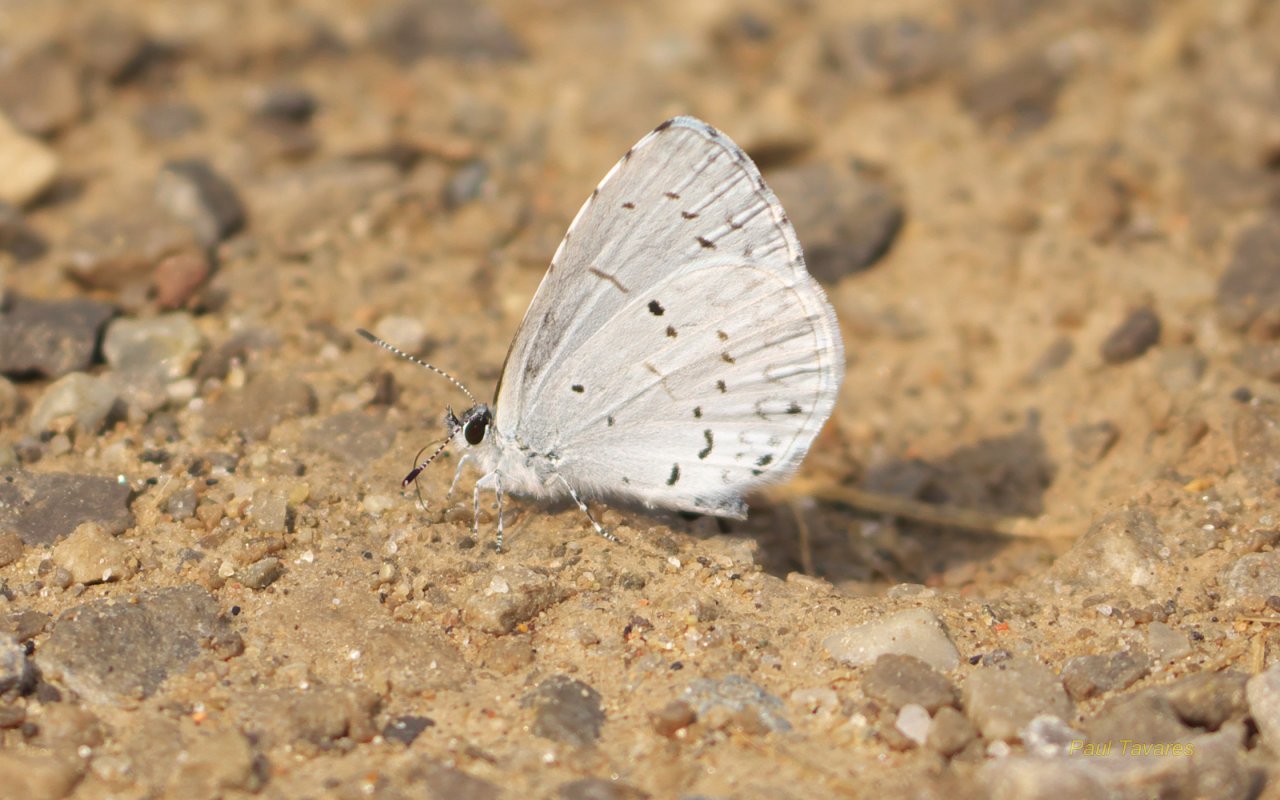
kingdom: Animalia
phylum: Arthropoda
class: Insecta
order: Lepidoptera
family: Lycaenidae
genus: Cyaniris
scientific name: Cyaniris neglecta
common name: Summer Azure
